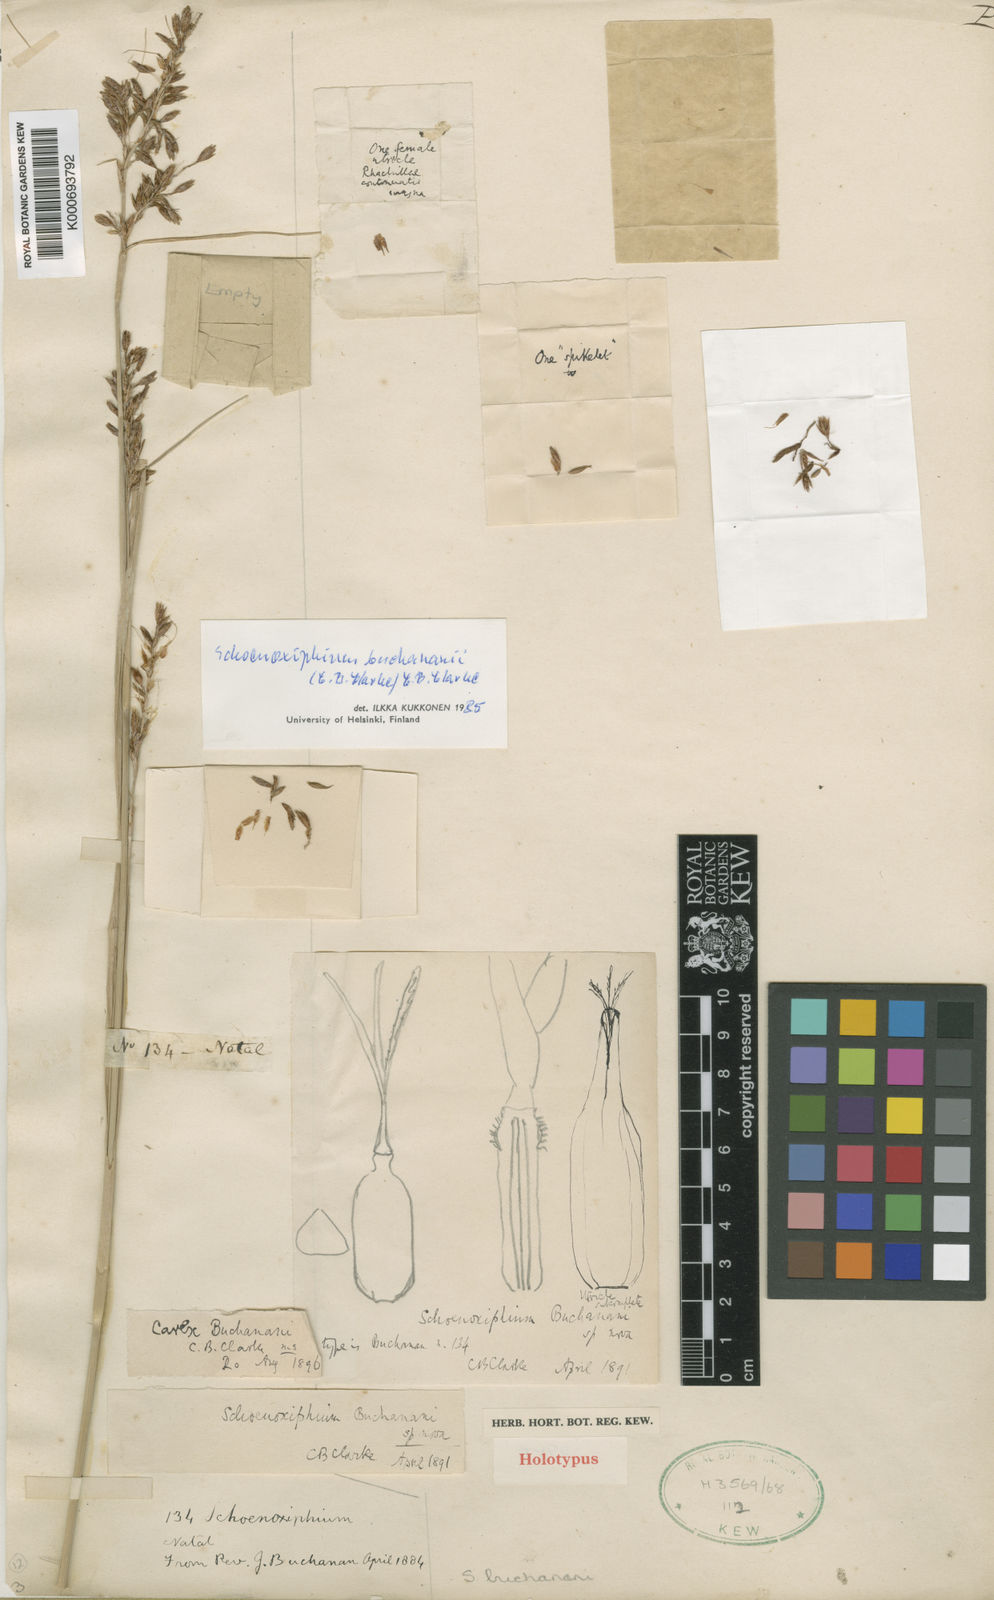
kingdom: Plantae
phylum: Tracheophyta
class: Liliopsida
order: Poales
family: Cyperaceae
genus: Carex
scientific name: Carex kukkoneniana
